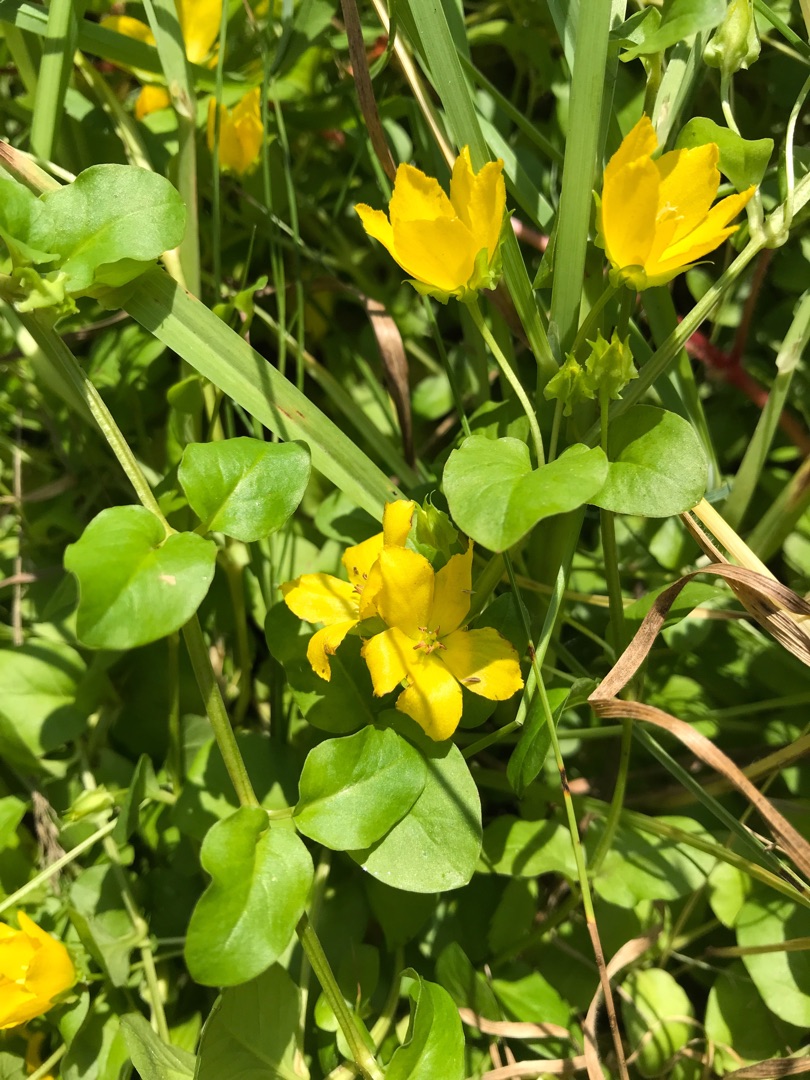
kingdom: Plantae
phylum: Tracheophyta
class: Magnoliopsida
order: Ericales
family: Primulaceae
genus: Lysimachia
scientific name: Lysimachia nummularia
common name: Pengebladet fredløs
